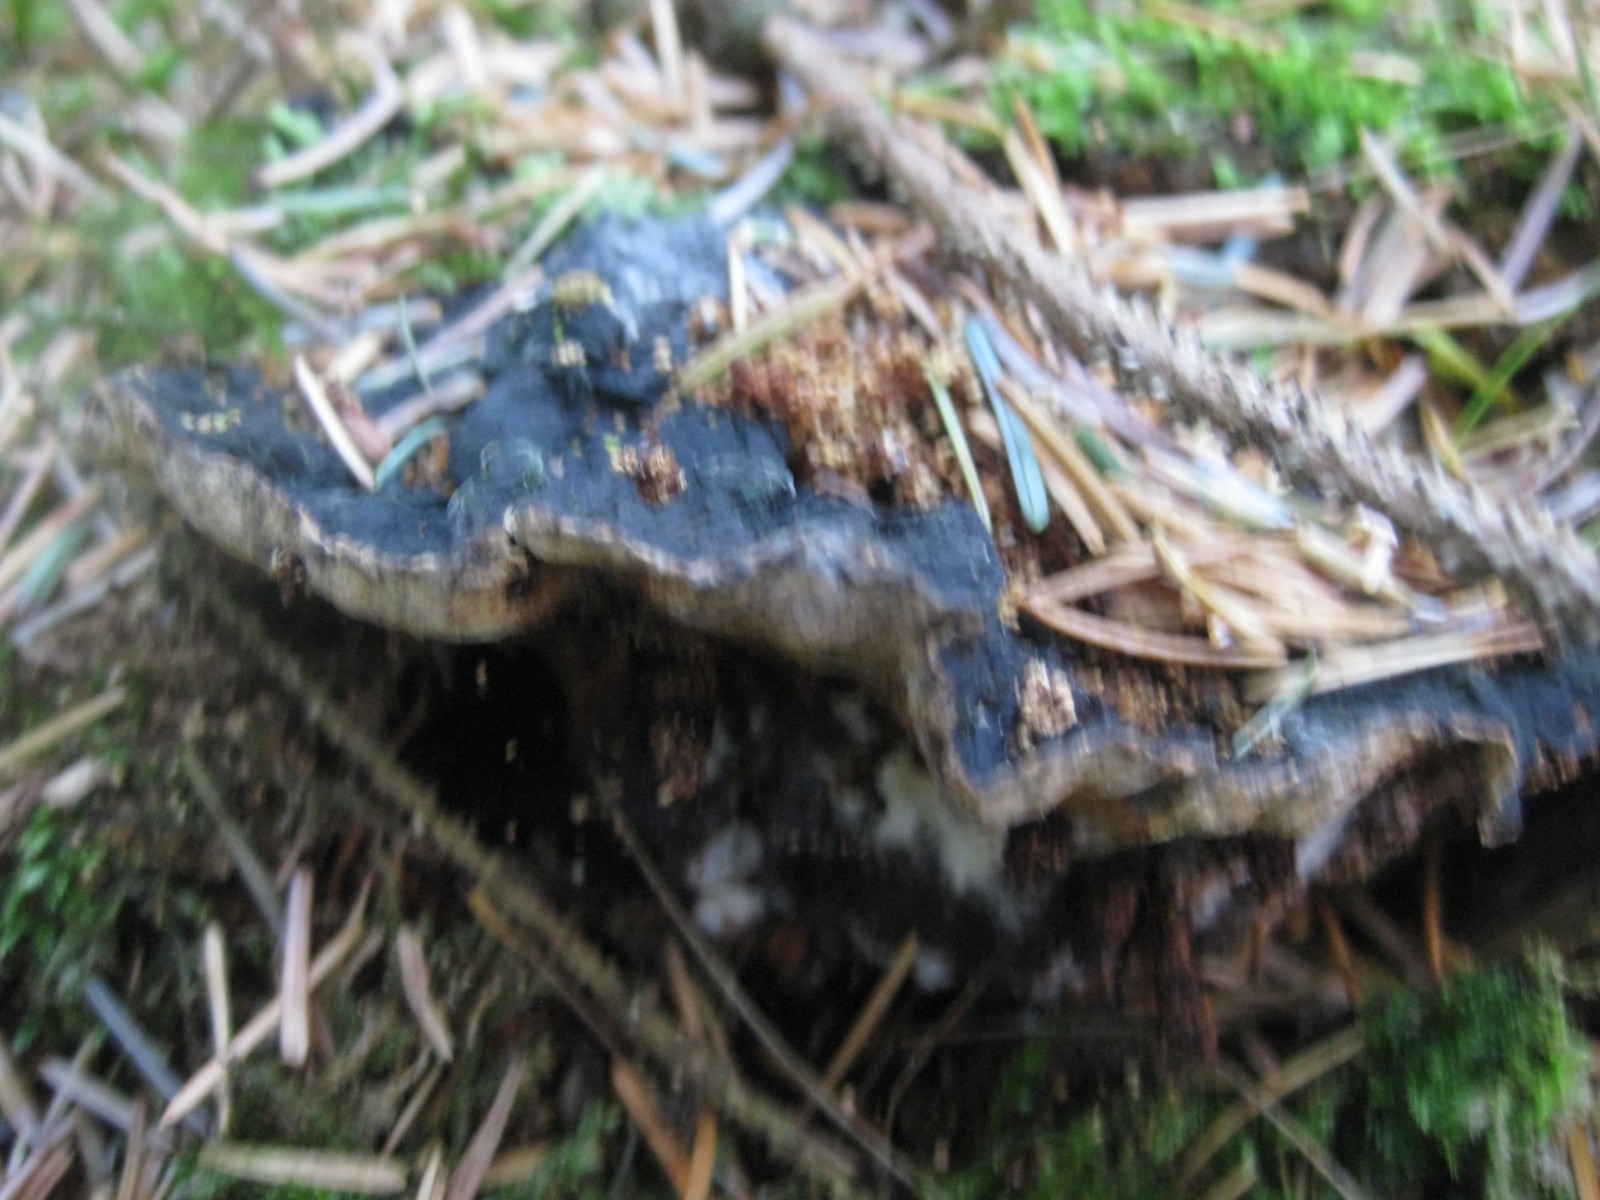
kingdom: Fungi
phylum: Basidiomycota
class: Agaricomycetes
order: Polyporales
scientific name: Polyporales
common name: poresvampordenen
